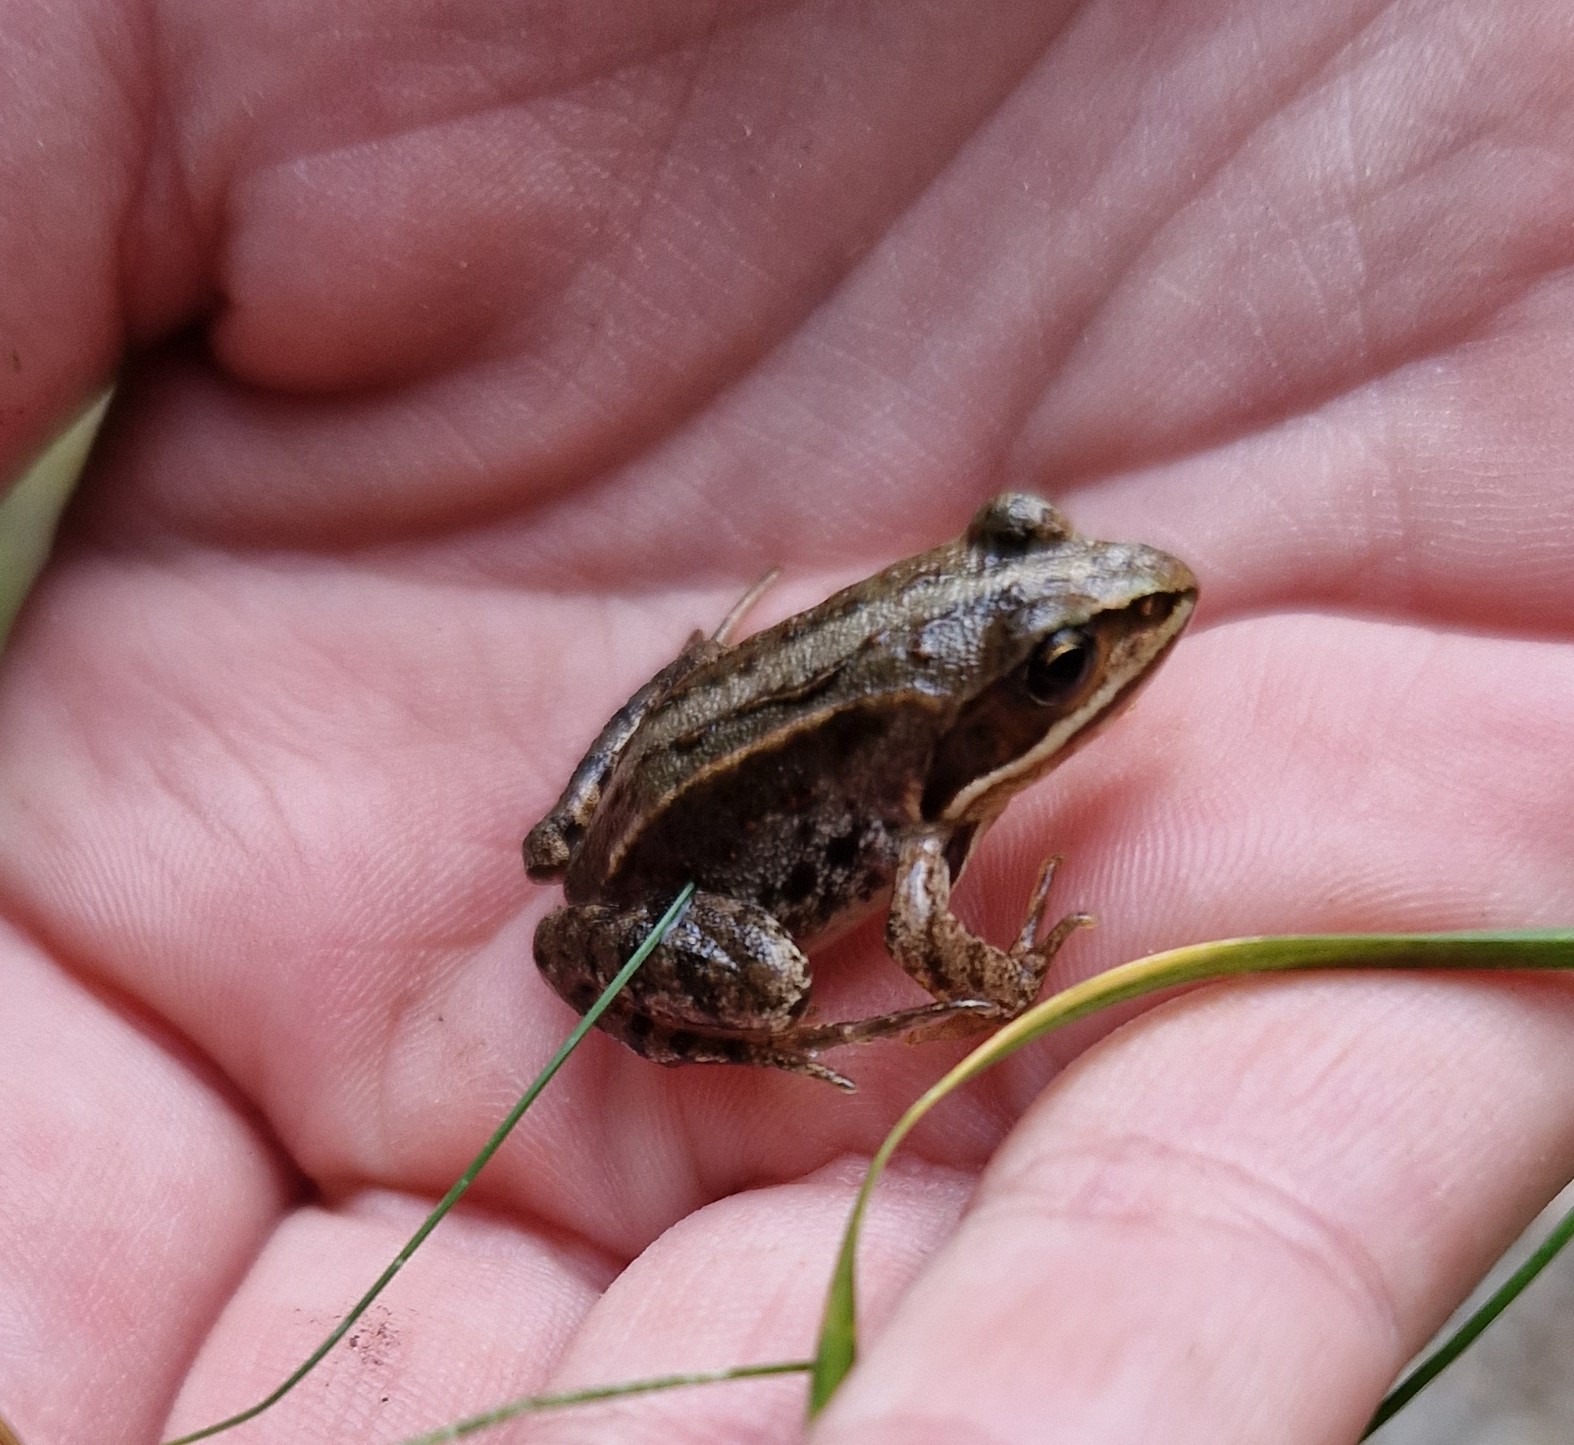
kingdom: Animalia
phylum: Chordata
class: Amphibia
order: Anura
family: Ranidae
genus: Rana
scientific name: Rana arvalis
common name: Spidssnudet frø
